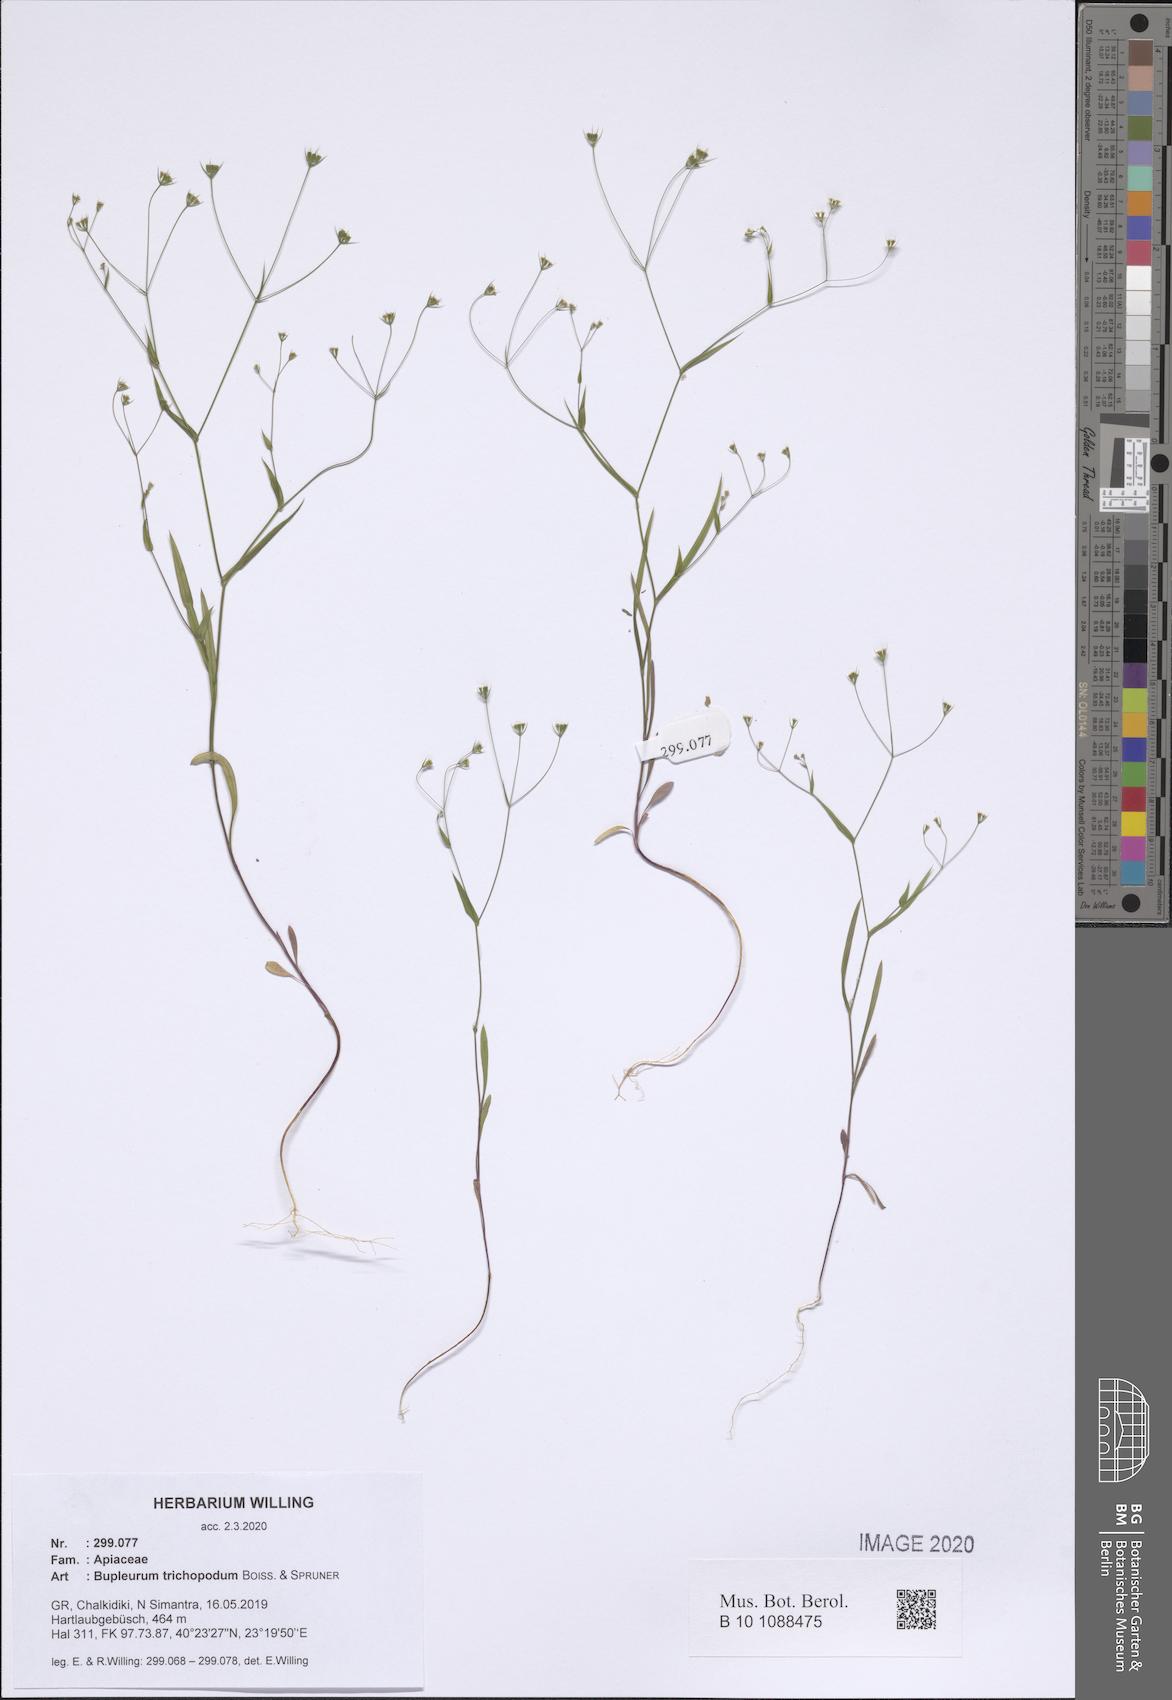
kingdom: Plantae
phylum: Tracheophyta
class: Magnoliopsida
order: Apiales
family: Apiaceae
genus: Bupleurum
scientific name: Bupleurum trichopodum
